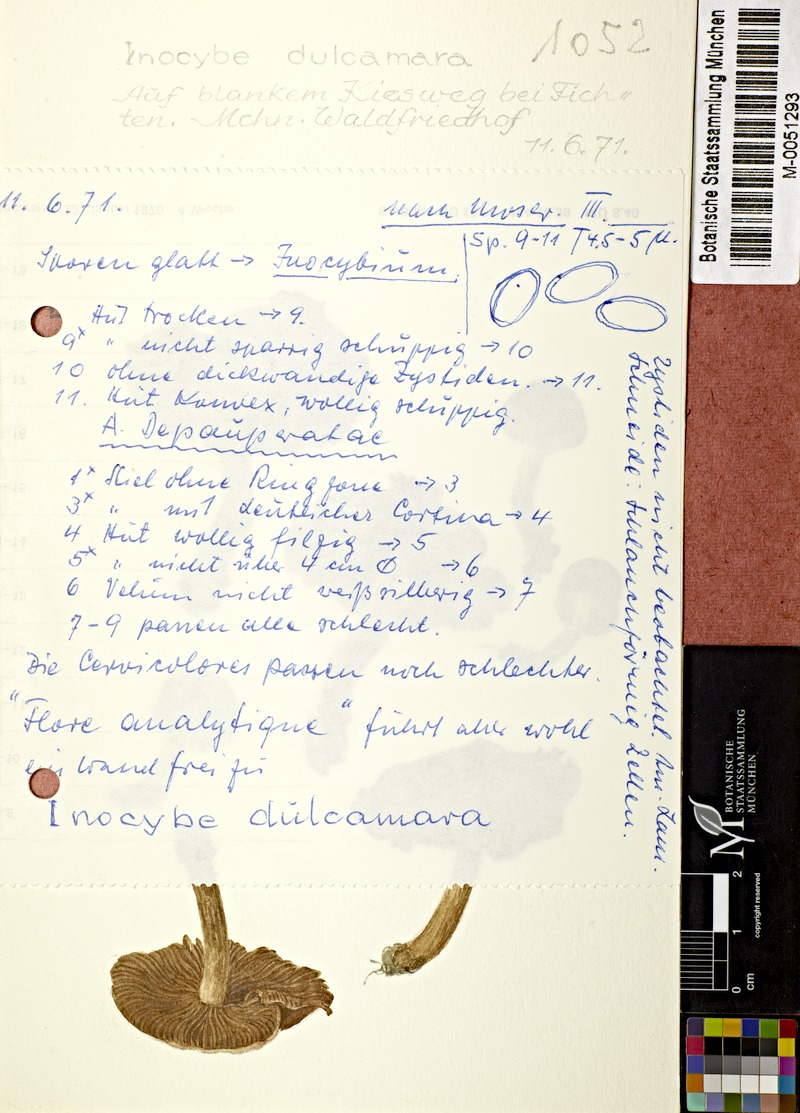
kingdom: Fungi
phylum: Basidiomycota
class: Agaricomycetes
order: Agaricales
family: Inocybaceae
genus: Inocybe
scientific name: Inocybe
